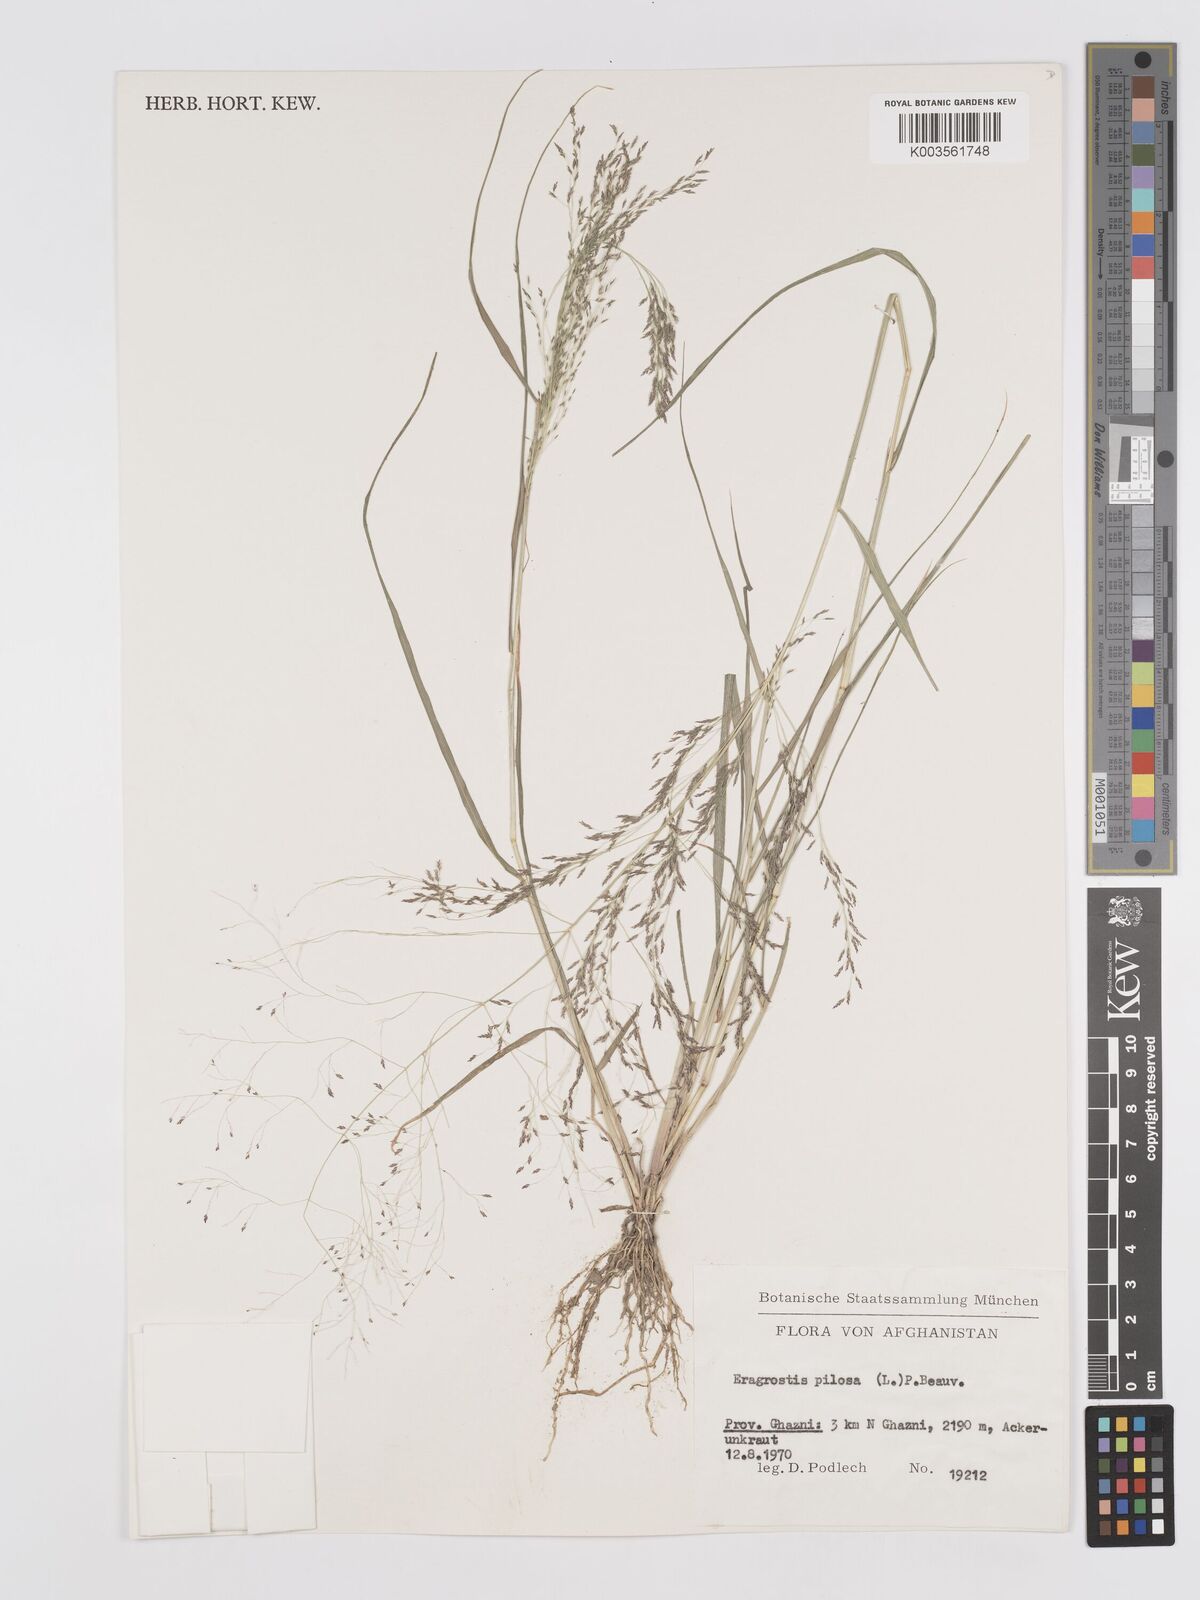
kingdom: Plantae
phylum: Tracheophyta
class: Liliopsida
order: Poales
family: Poaceae
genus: Eragrostis
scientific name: Eragrostis pilosa
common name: Indian lovegrass
